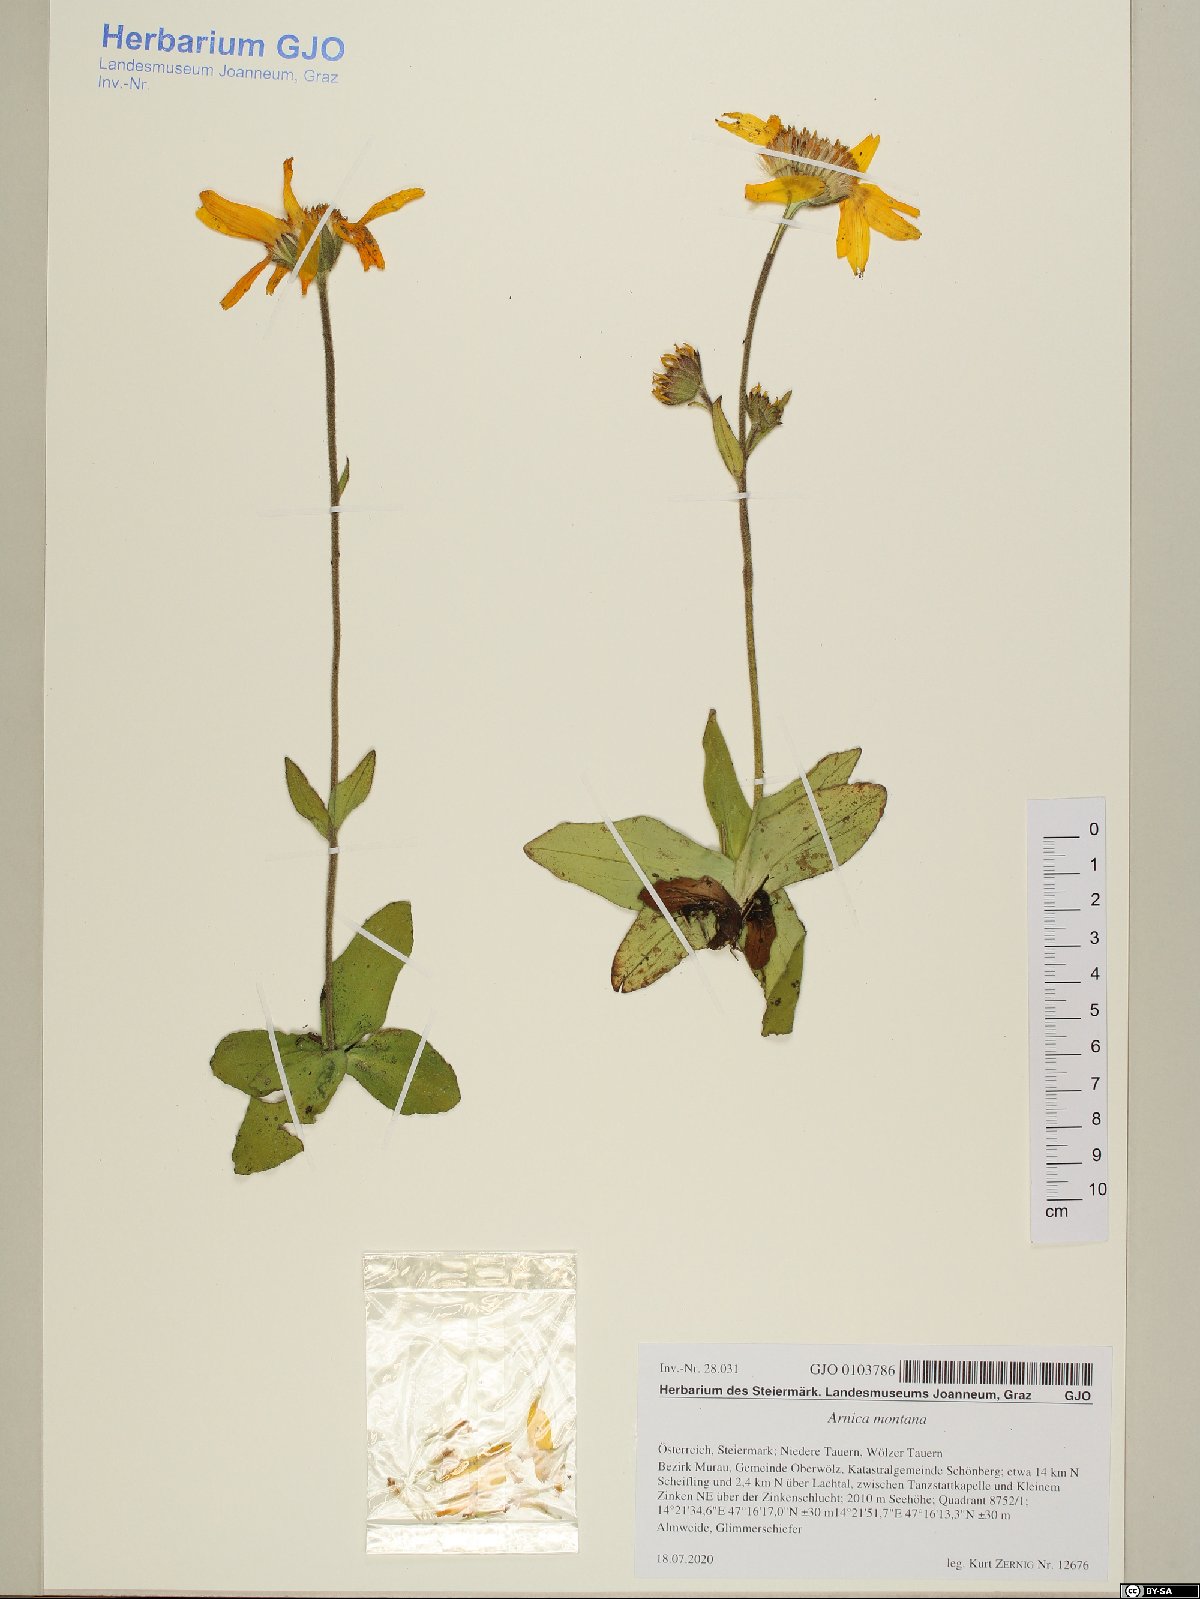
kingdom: Plantae
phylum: Tracheophyta
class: Magnoliopsida
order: Asterales
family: Asteraceae
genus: Arnica
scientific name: Arnica montana
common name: Leopard's bane
